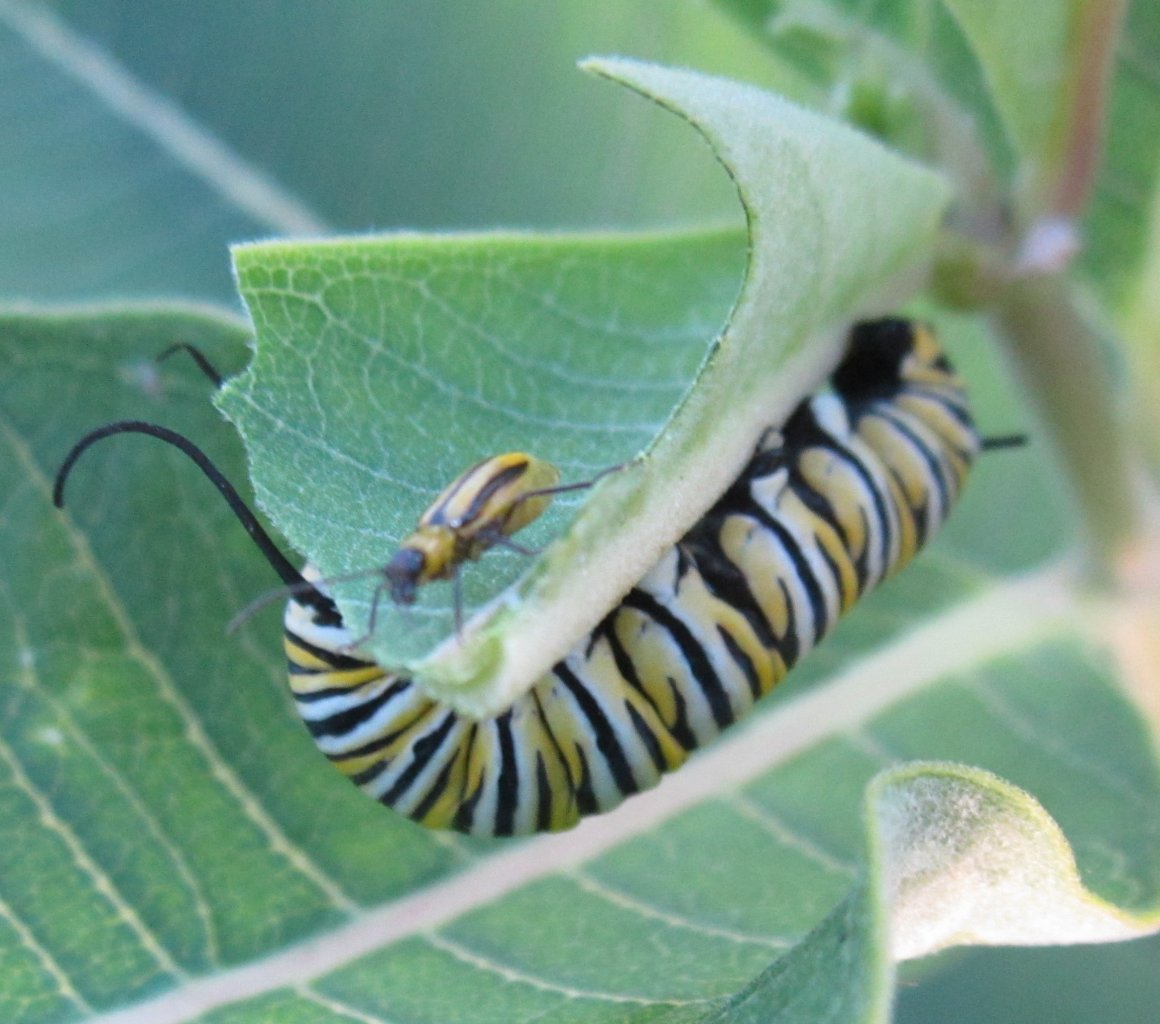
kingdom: Animalia
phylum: Arthropoda
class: Insecta
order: Lepidoptera
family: Nymphalidae
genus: Danaus
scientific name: Danaus plexippus
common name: Monarch
